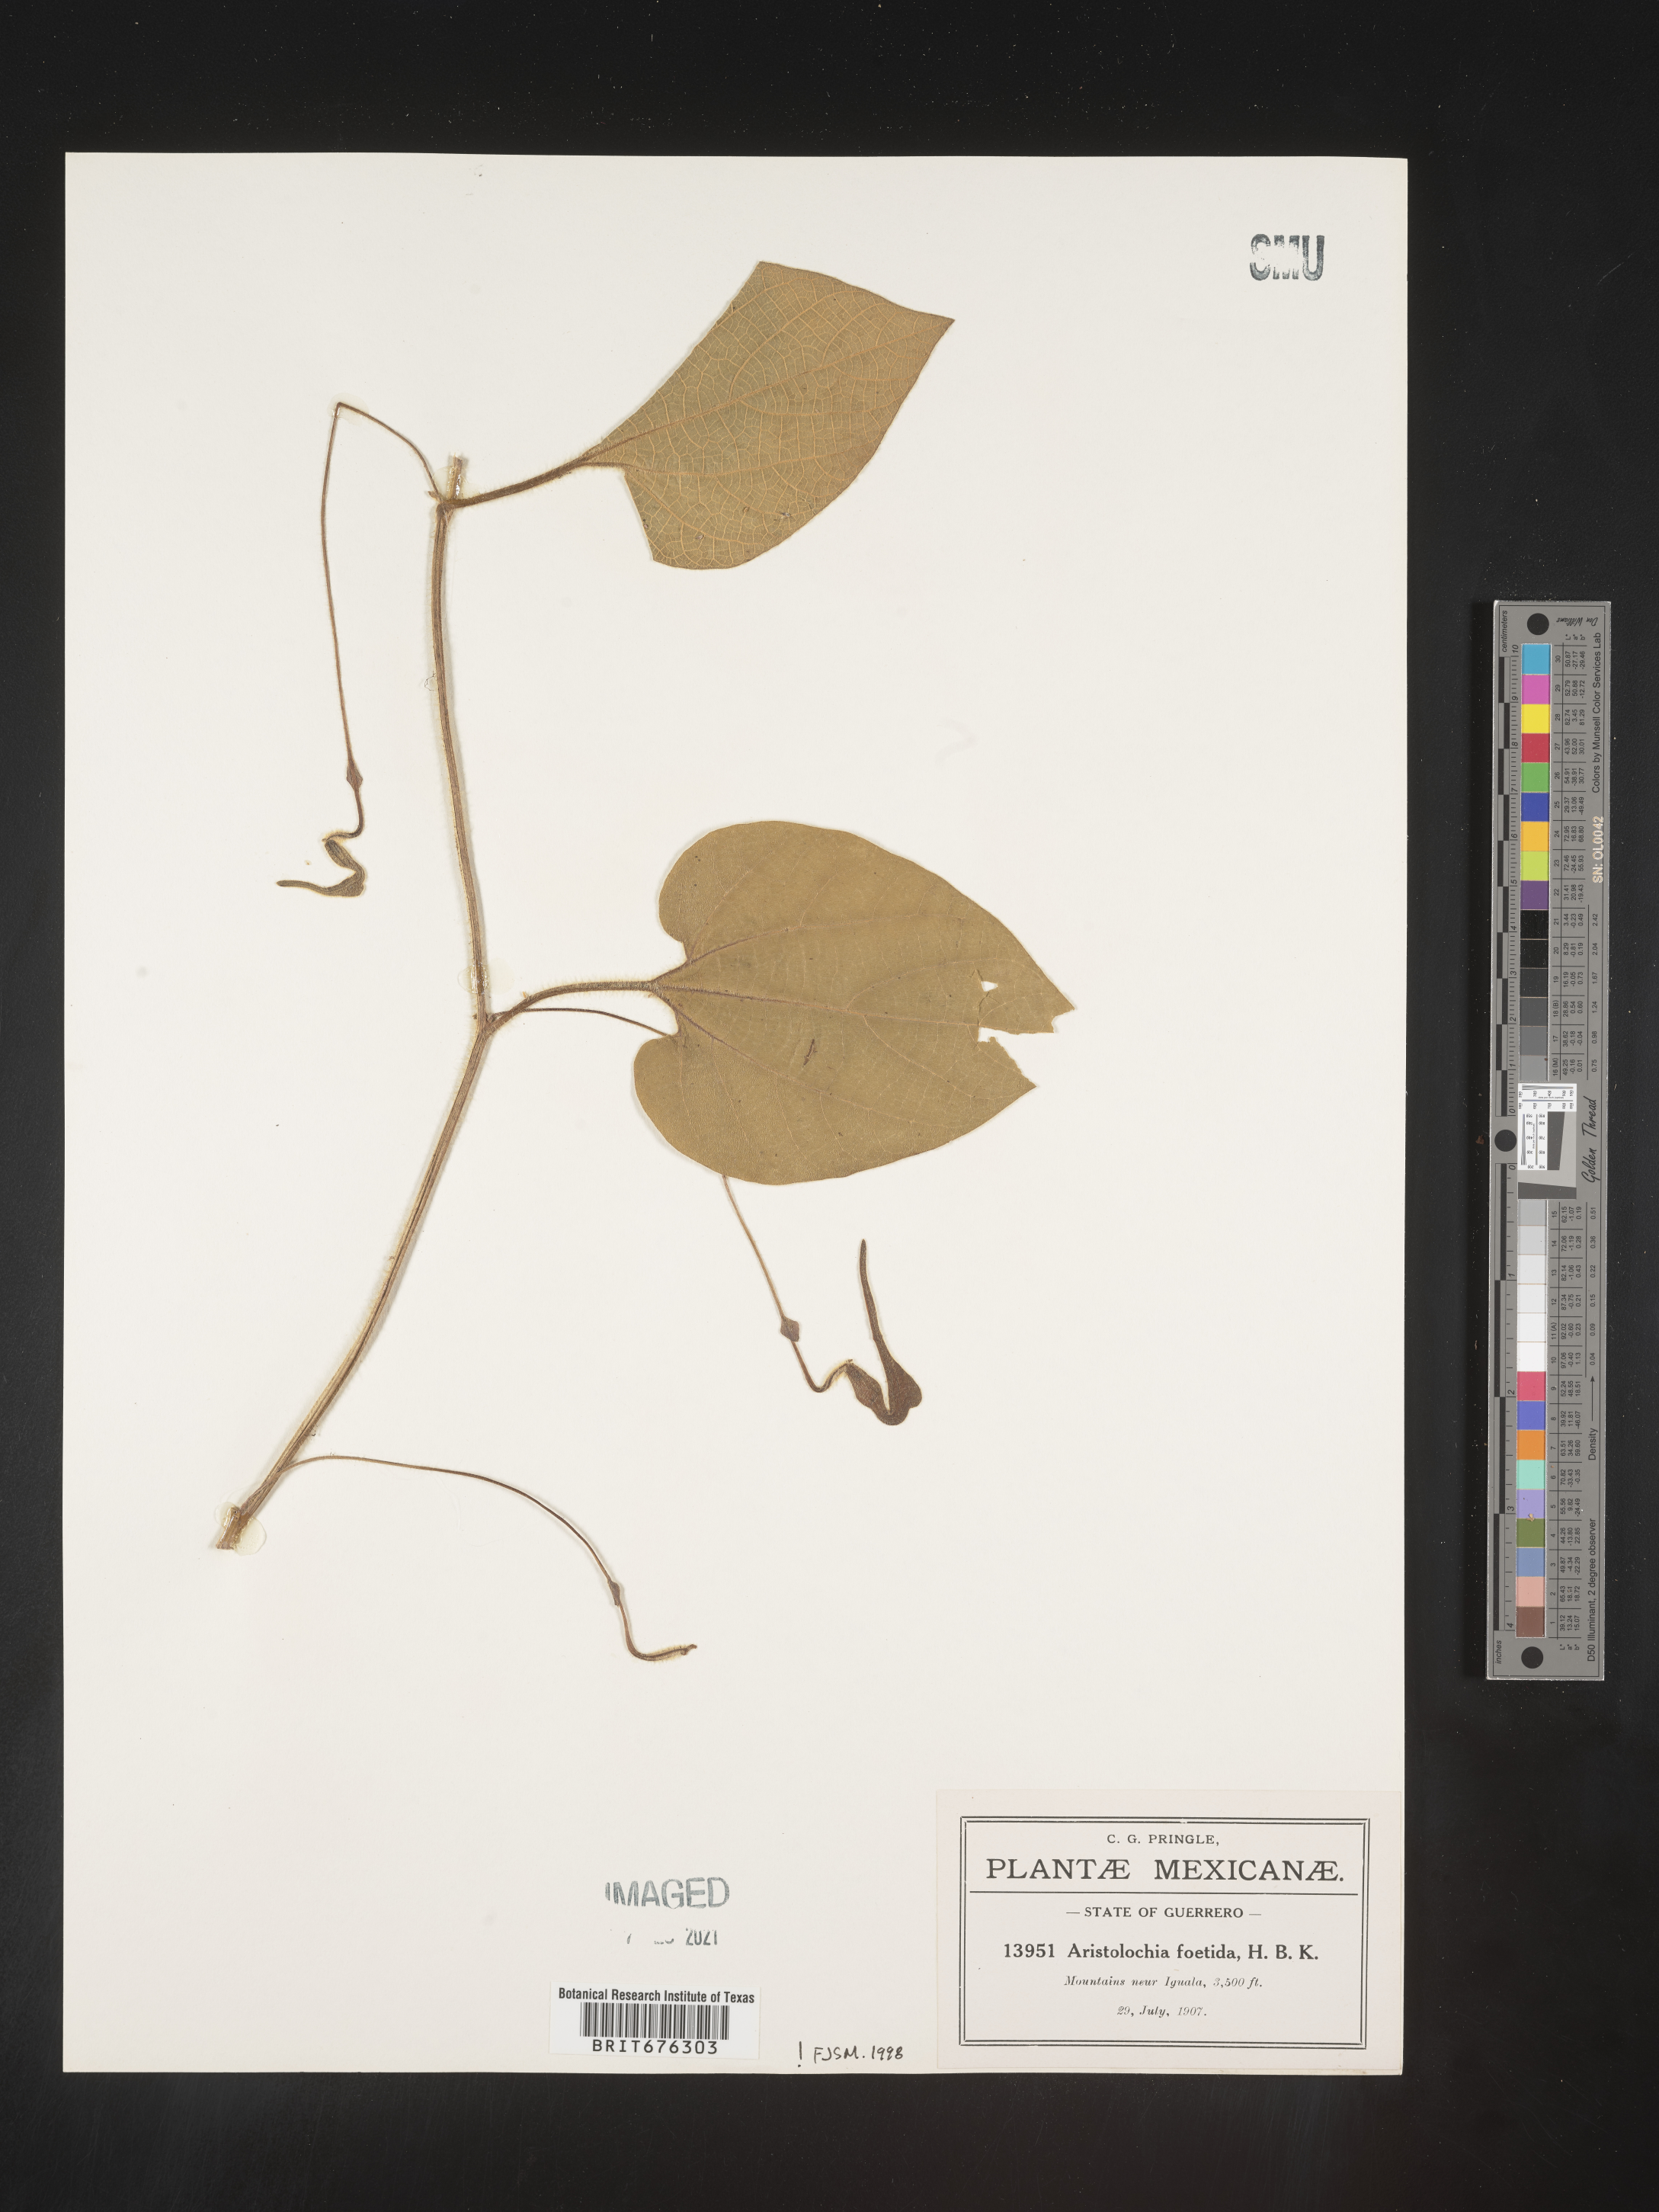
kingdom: Plantae
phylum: Tracheophyta
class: Magnoliopsida
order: Piperales
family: Aristolochiaceae
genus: Aristolochia
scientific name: Aristolochia
